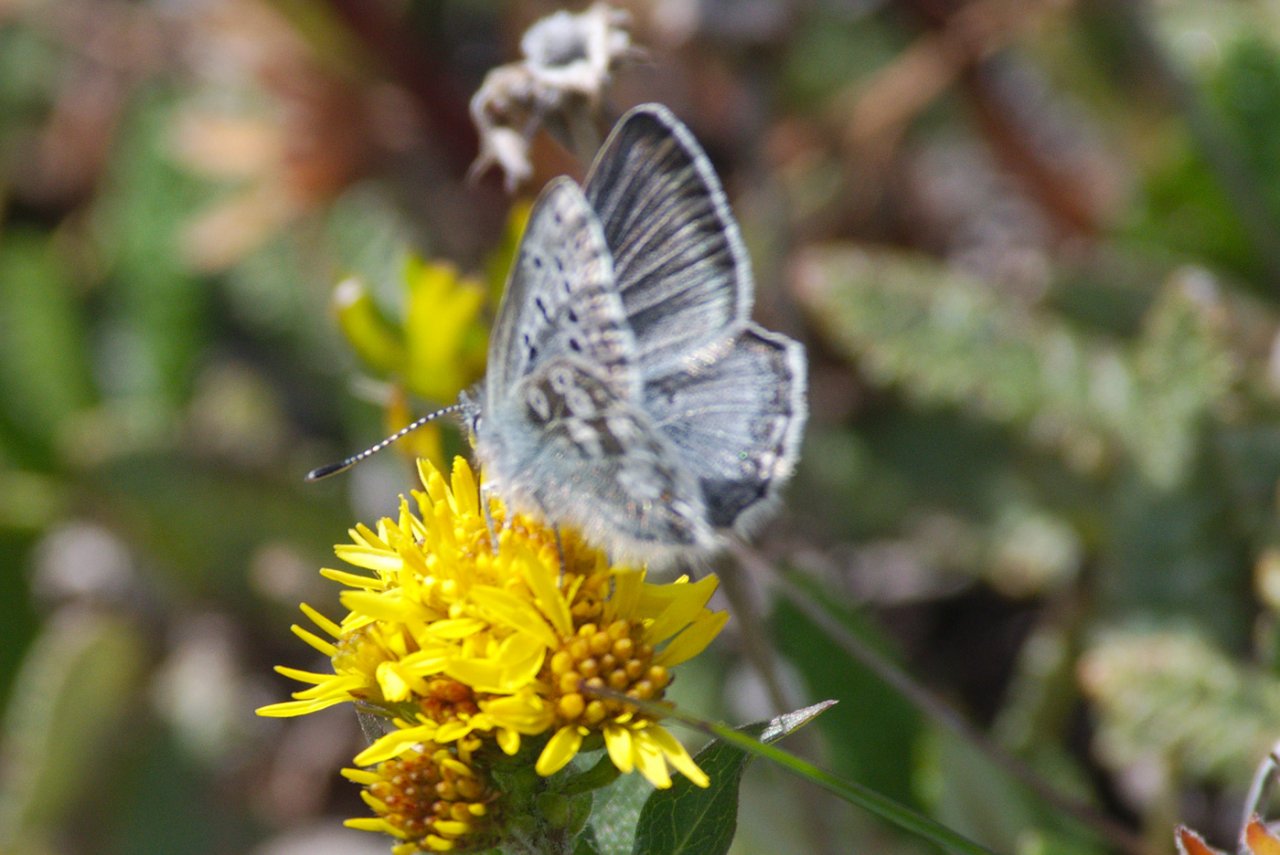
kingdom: Animalia
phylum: Arthropoda
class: Insecta
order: Lepidoptera
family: Lycaenidae
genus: Agriades
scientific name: Agriades glandon
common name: Arctic Blue
